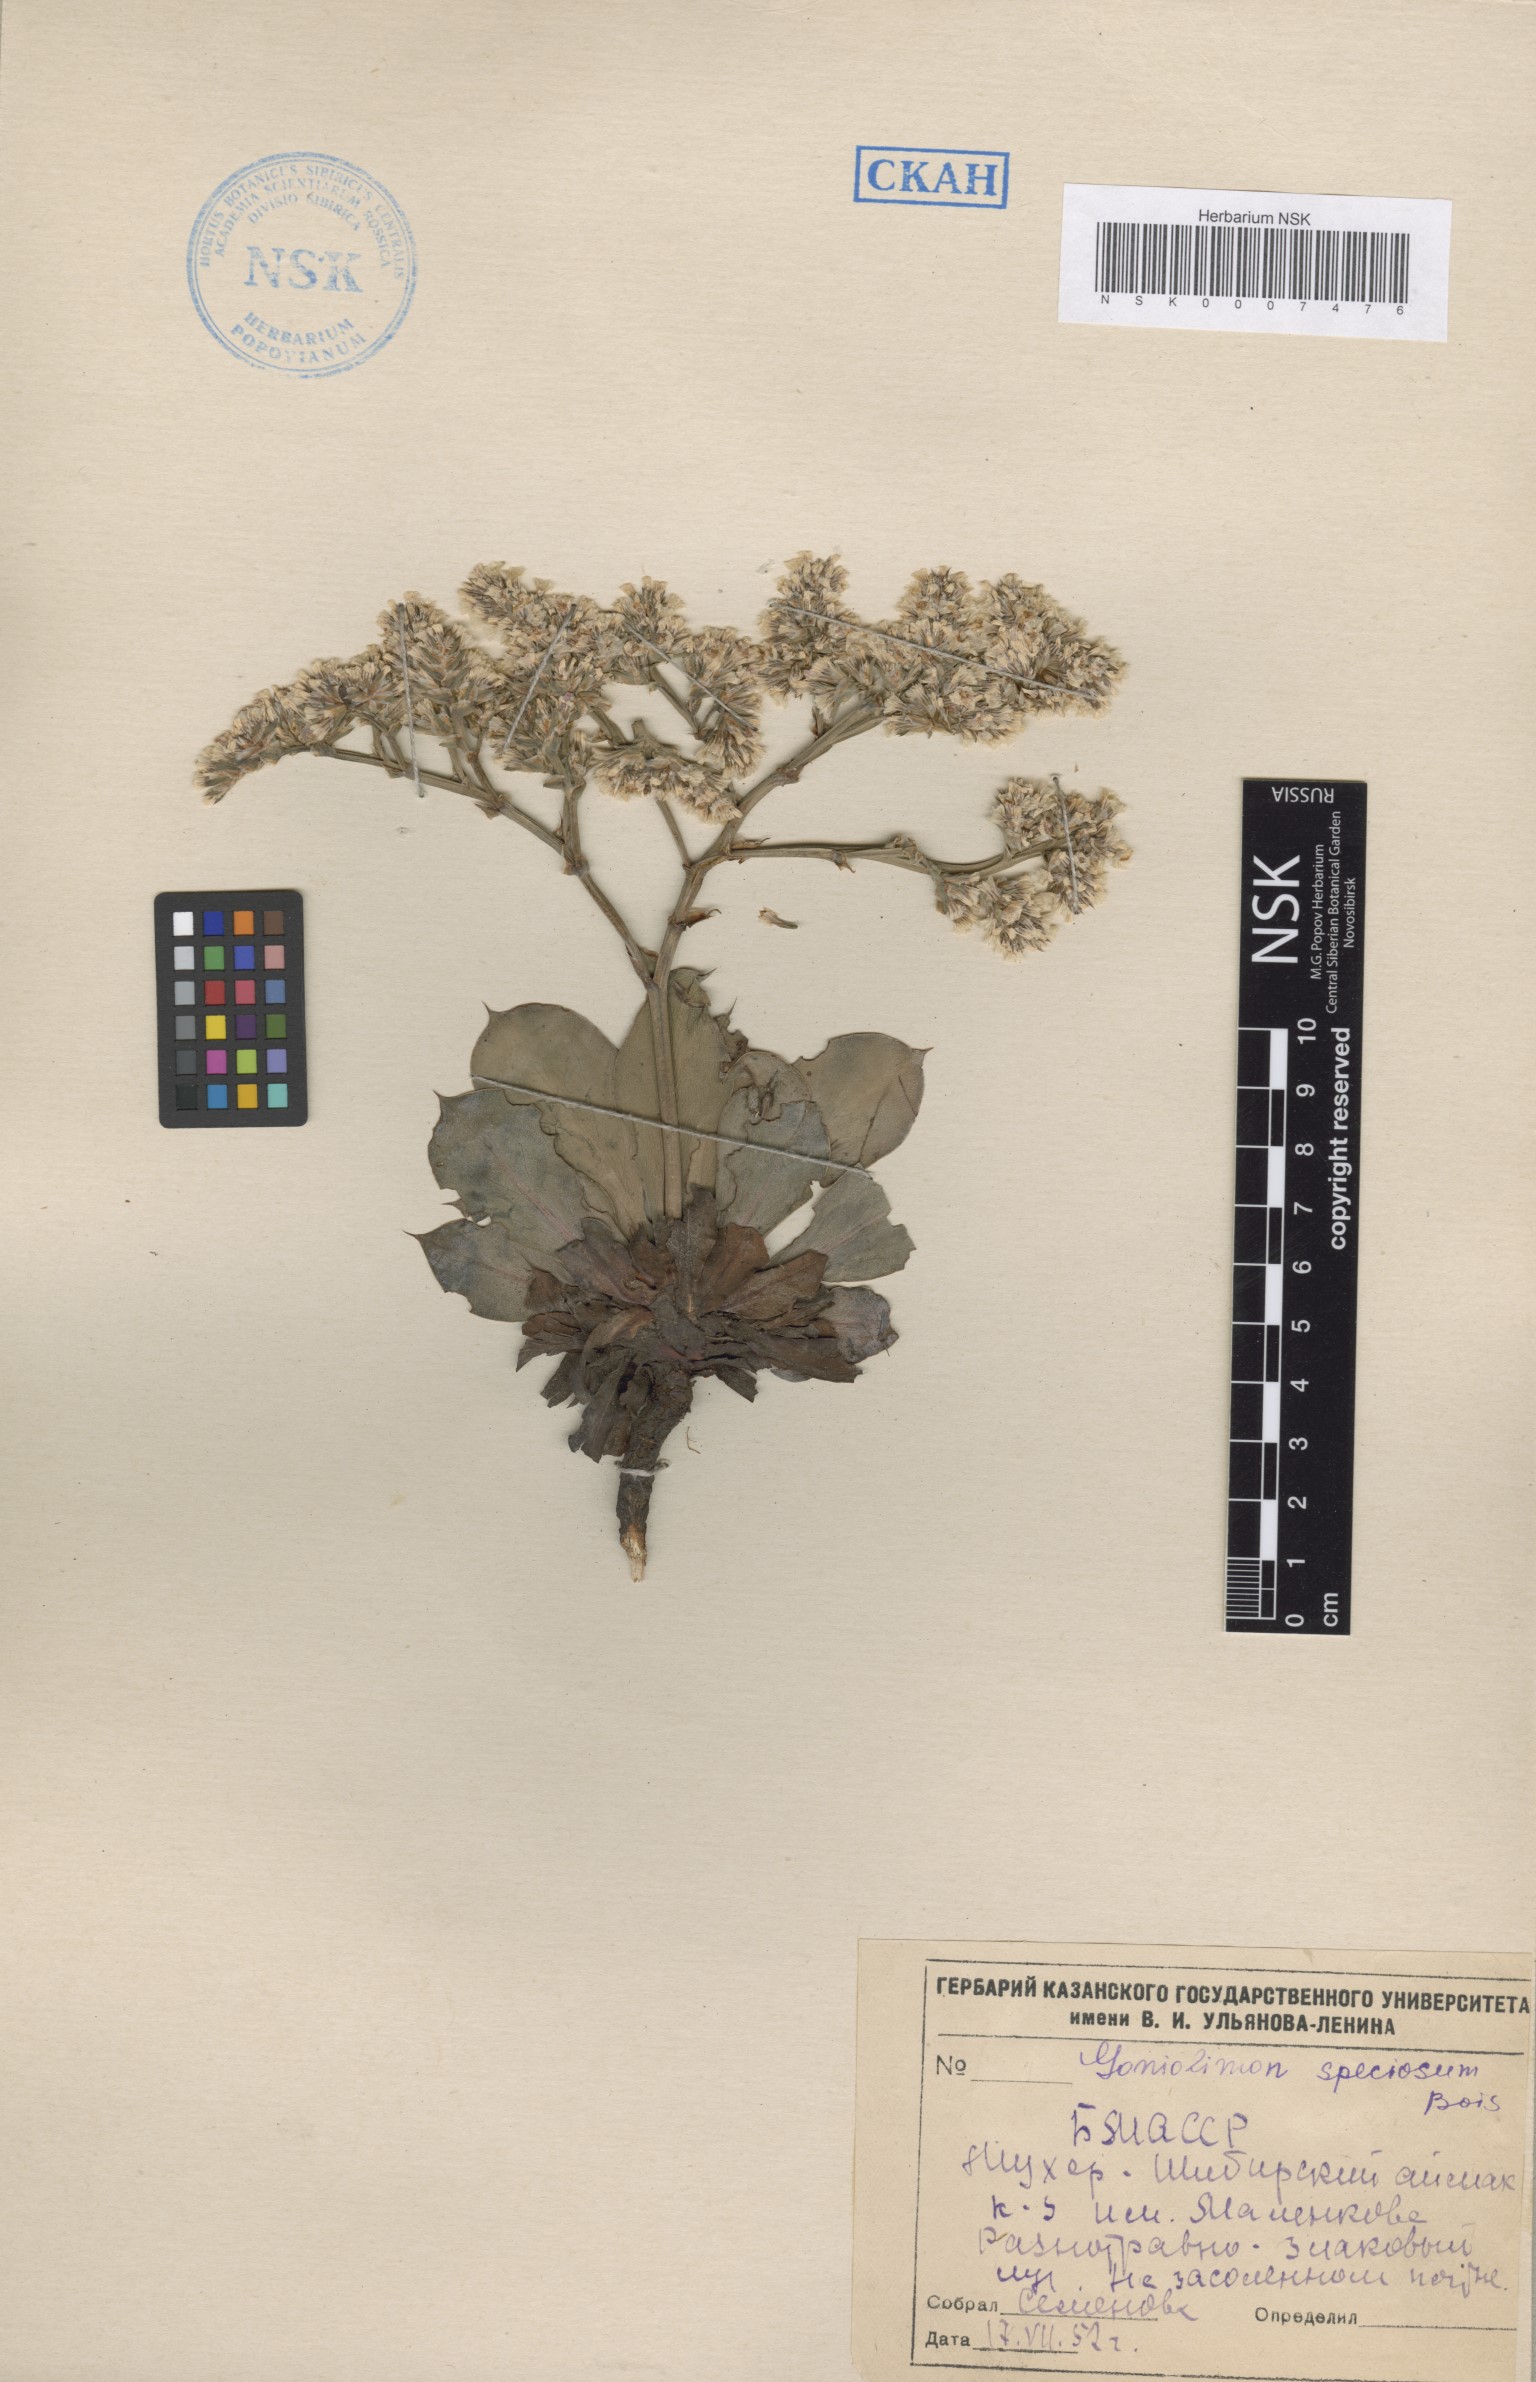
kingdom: Plantae
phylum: Tracheophyta
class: Magnoliopsida
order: Caryophyllales
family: Plumbaginaceae
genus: Goniolimon
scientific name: Goniolimon speciosum
